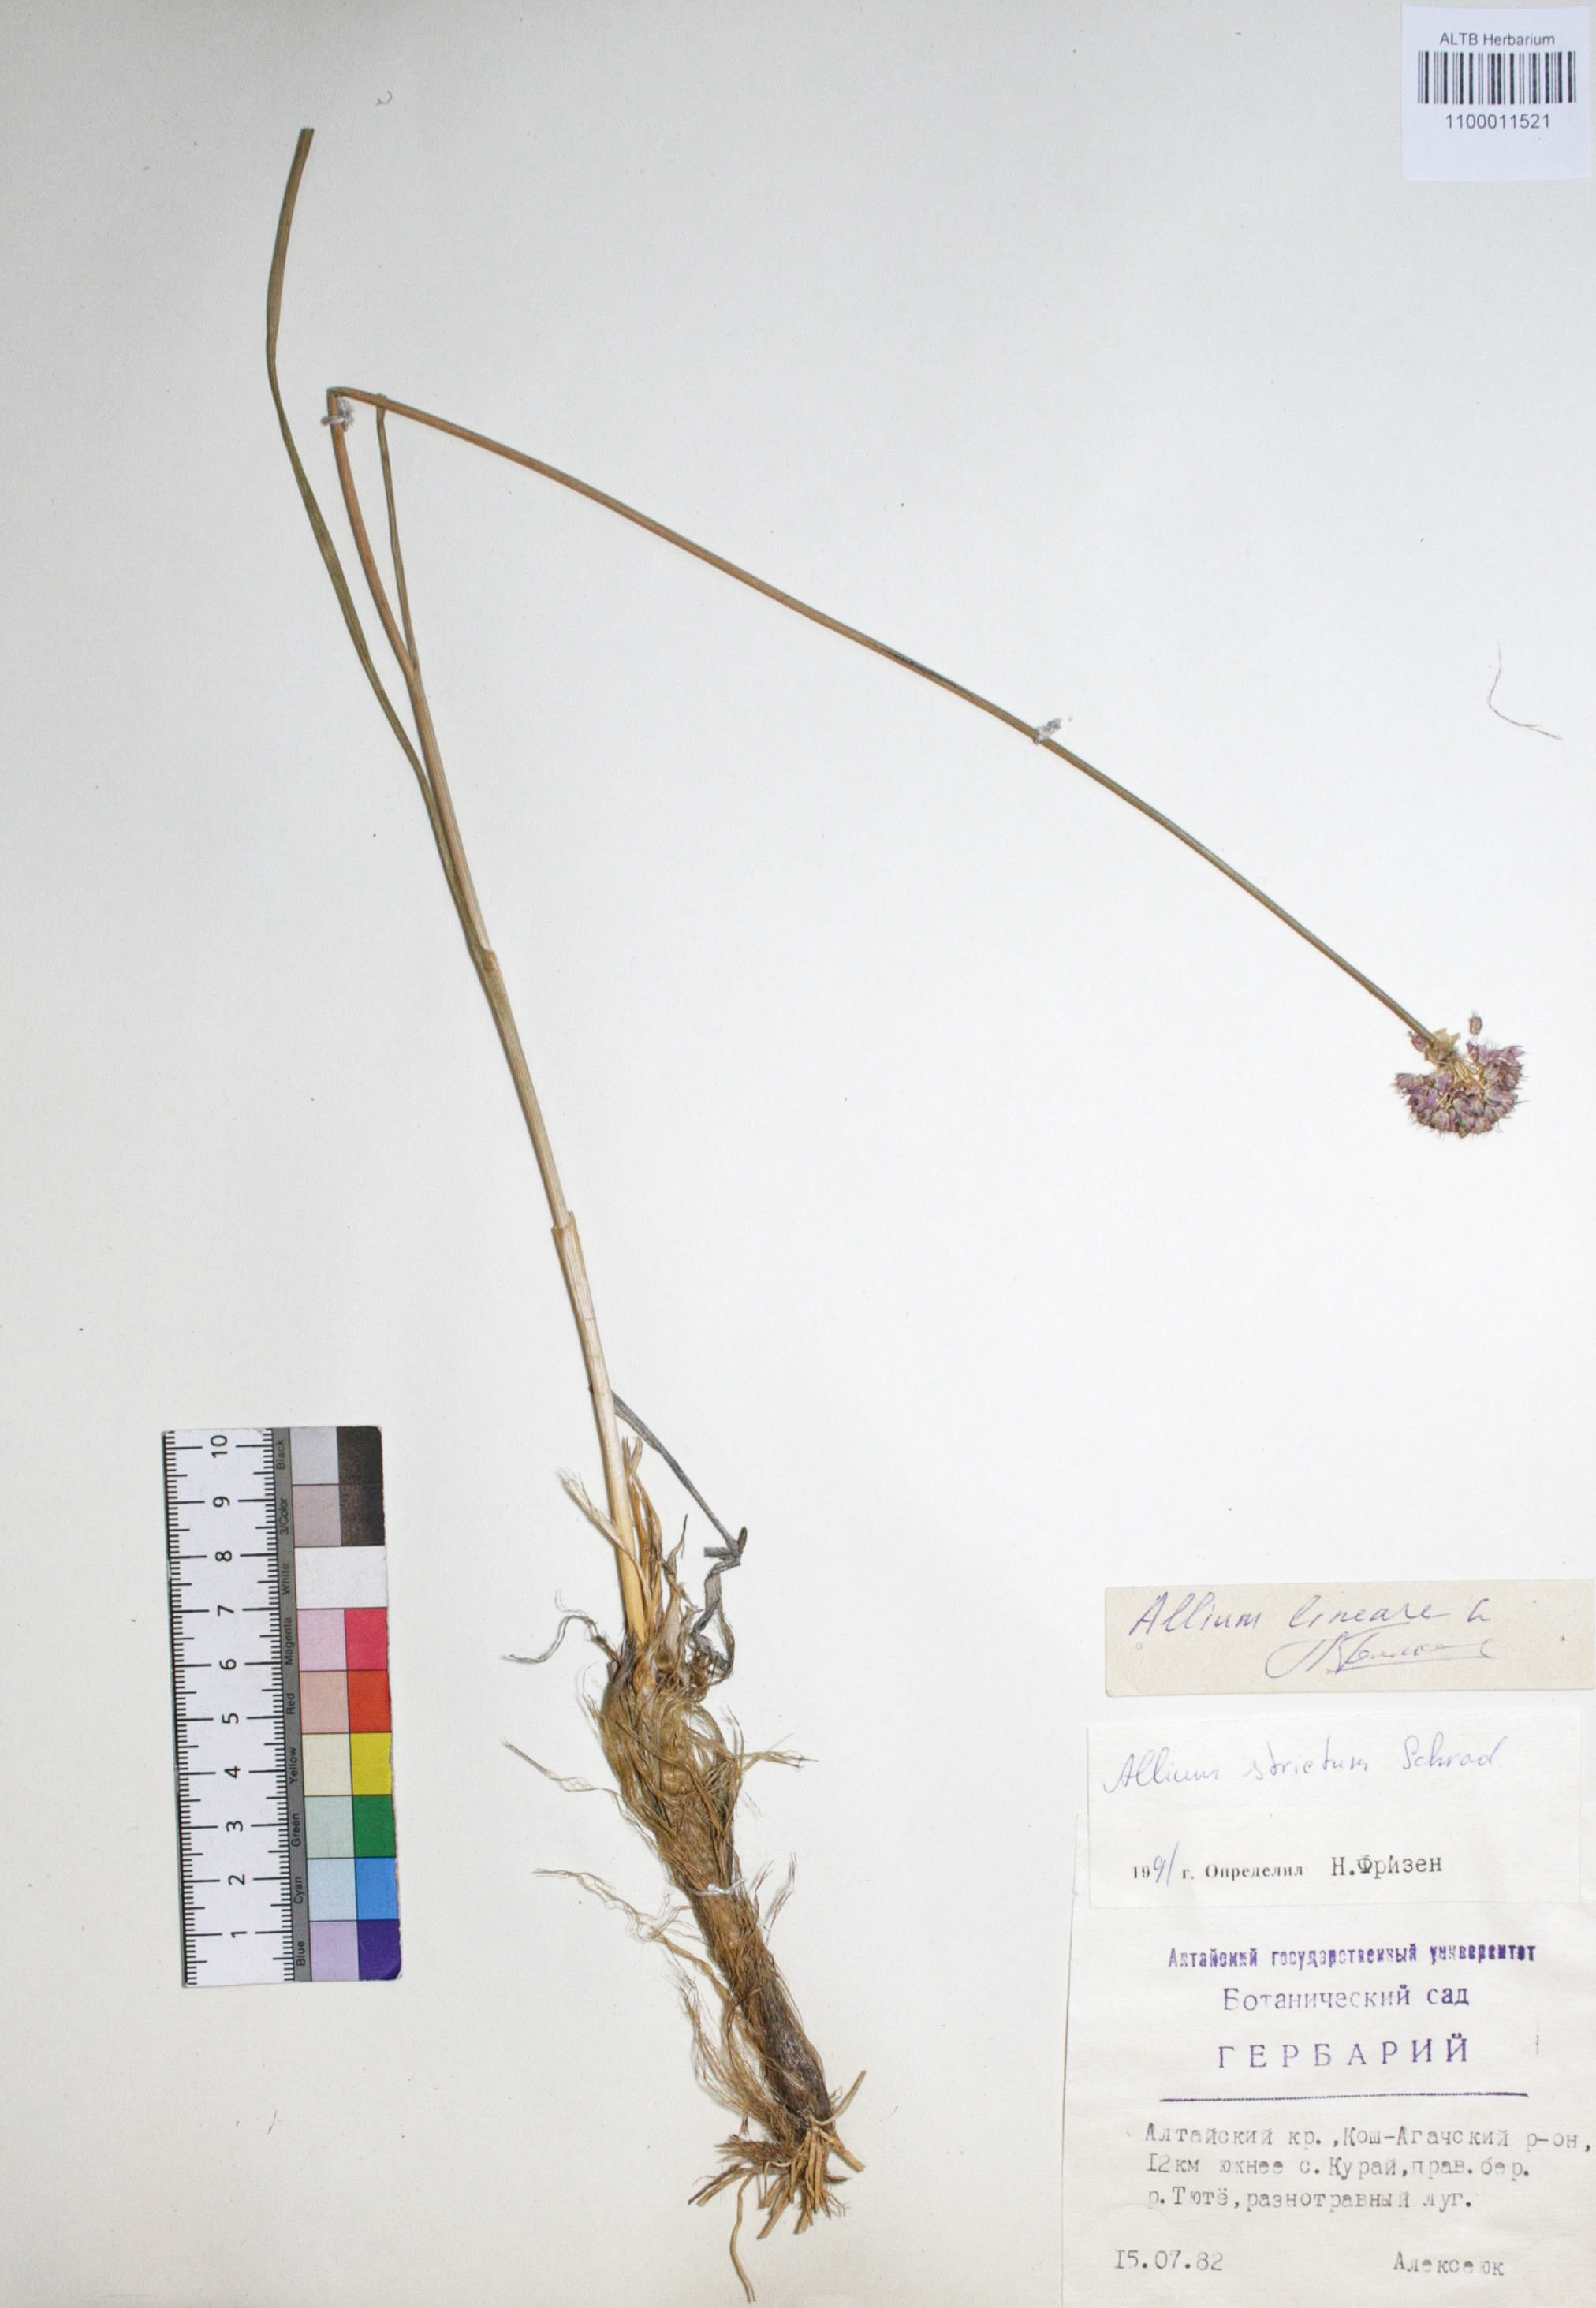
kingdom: Plantae
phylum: Tracheophyta
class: Liliopsida
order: Asparagales
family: Amaryllidaceae
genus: Allium
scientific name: Allium strictum
